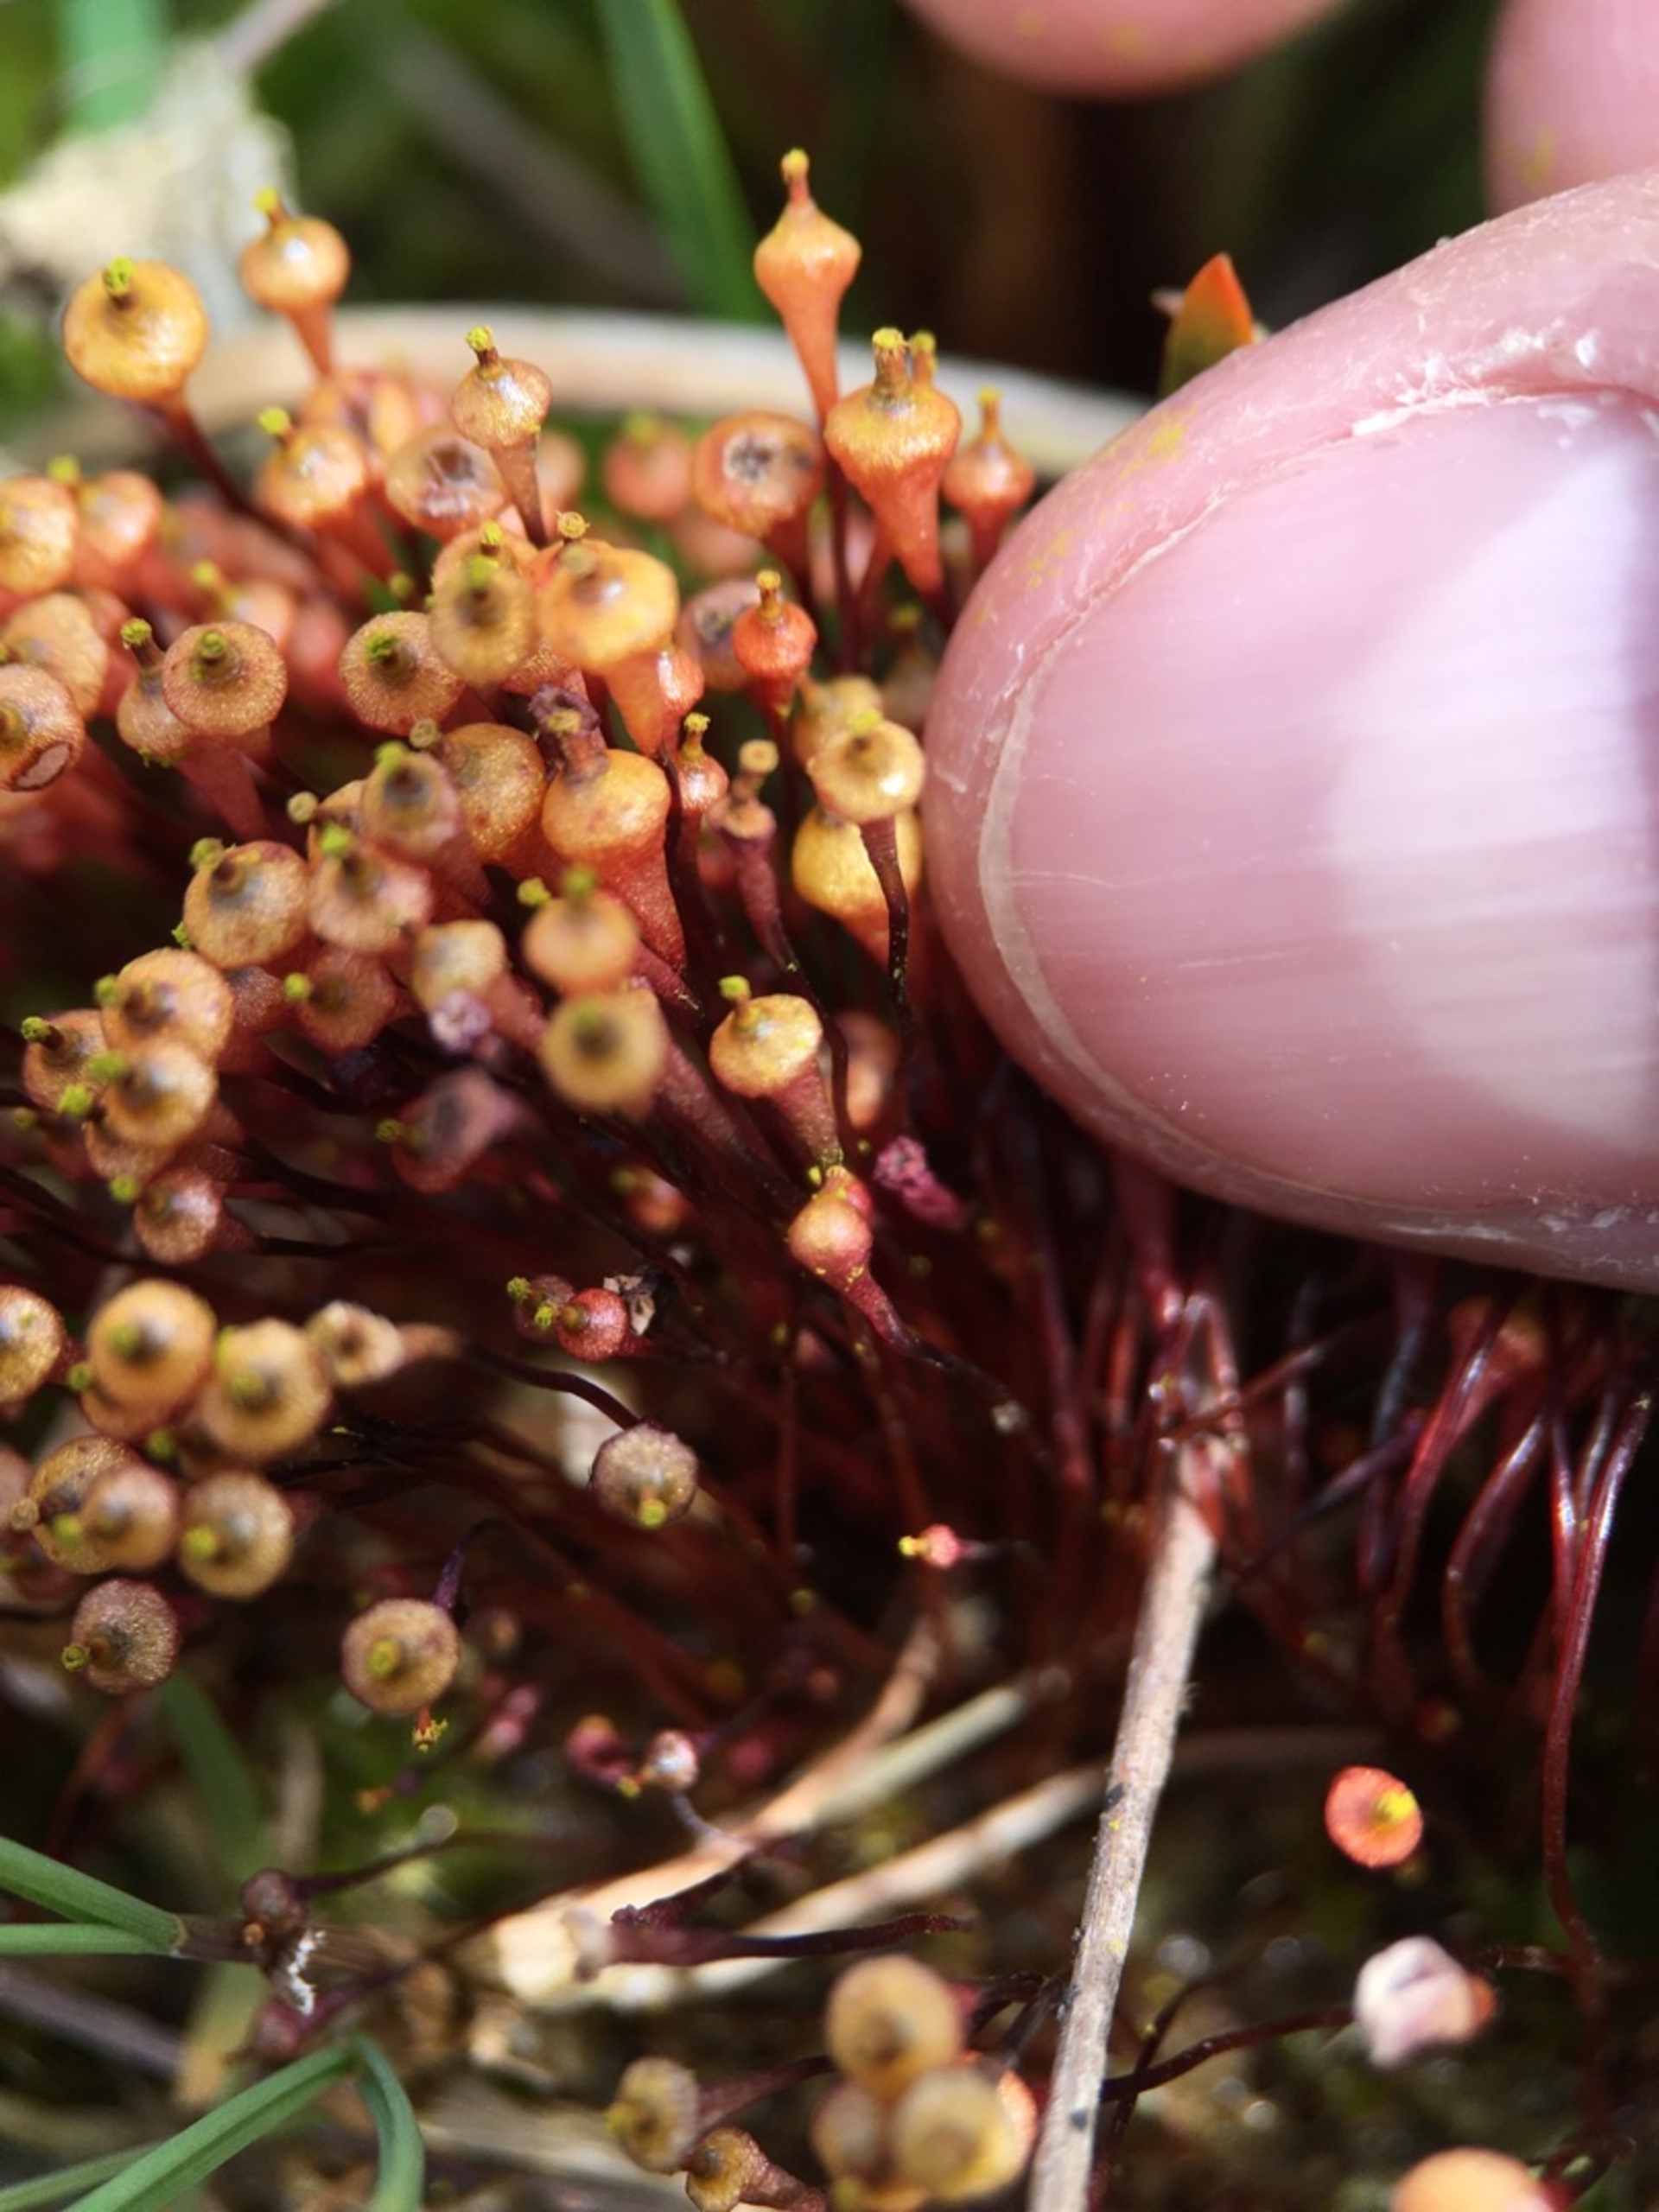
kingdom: Plantae
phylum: Bryophyta
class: Bryopsida
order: Splachnales
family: Splachnaceae
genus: Splachnum
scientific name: Splachnum ampullaceum
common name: Pære-møgmos
